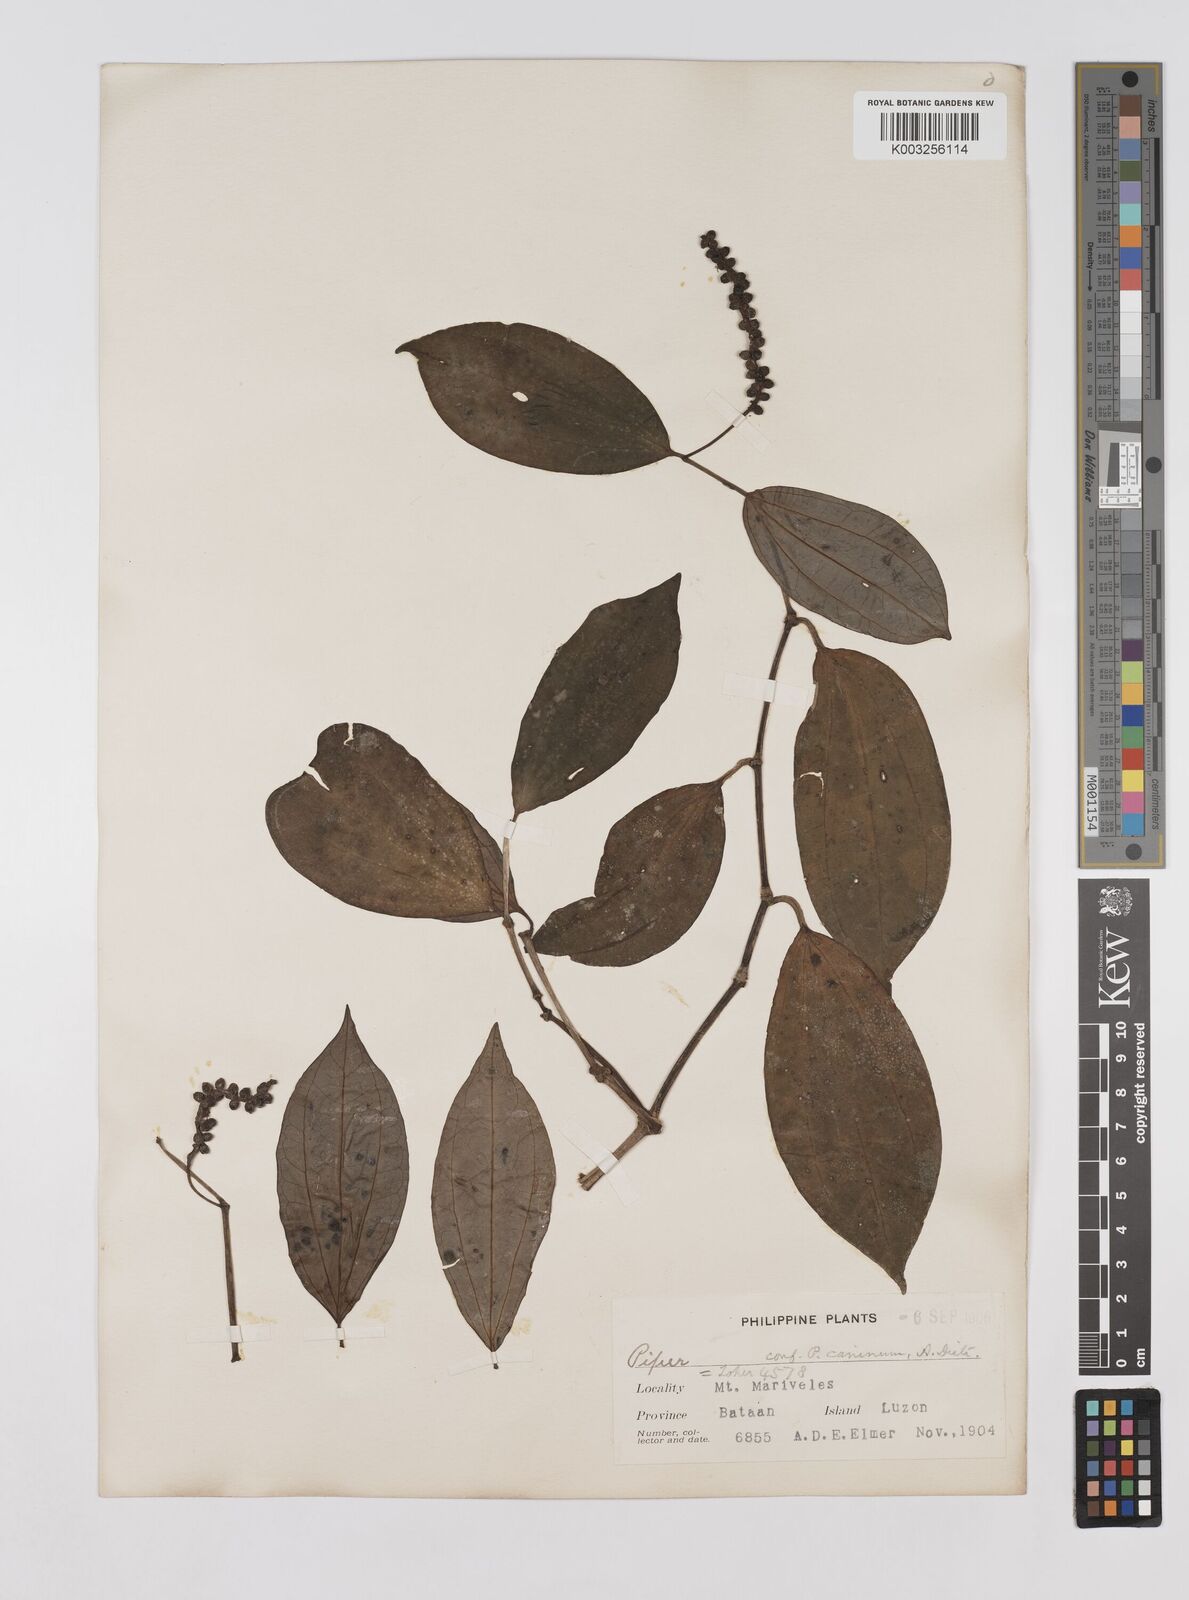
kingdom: Plantae
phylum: Tracheophyta
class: Magnoliopsida
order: Piperales
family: Piperaceae
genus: Piper
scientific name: Piper lanatum
